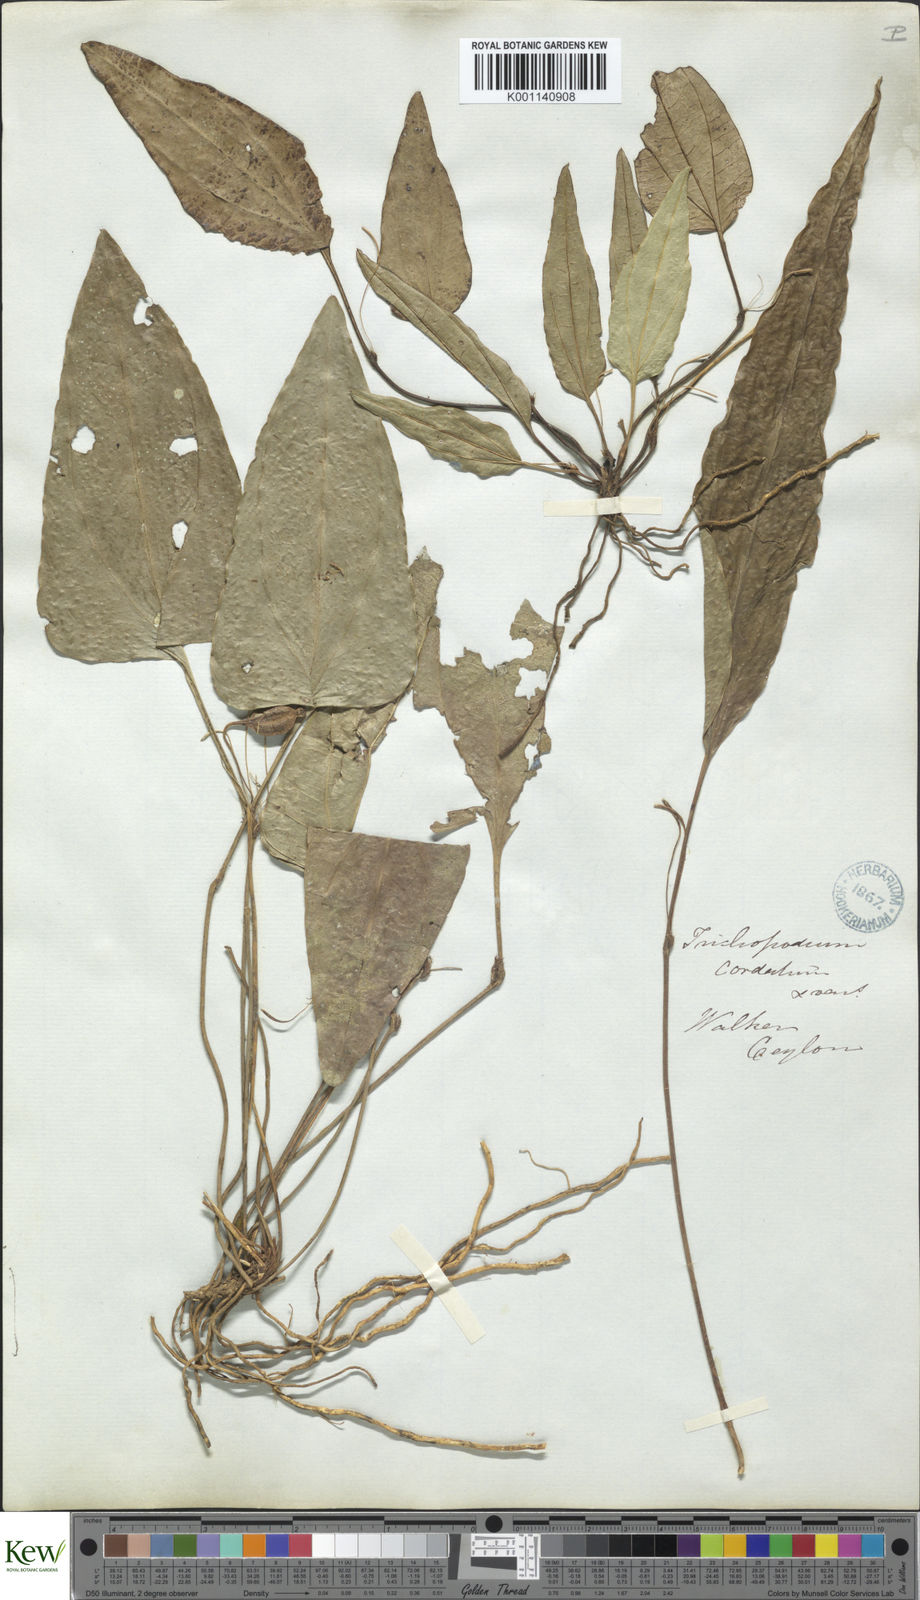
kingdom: Plantae
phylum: Tracheophyta
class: Liliopsida
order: Dioscoreales
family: Dioscoreaceae
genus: Trichopus
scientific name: Trichopus zeylanicus
